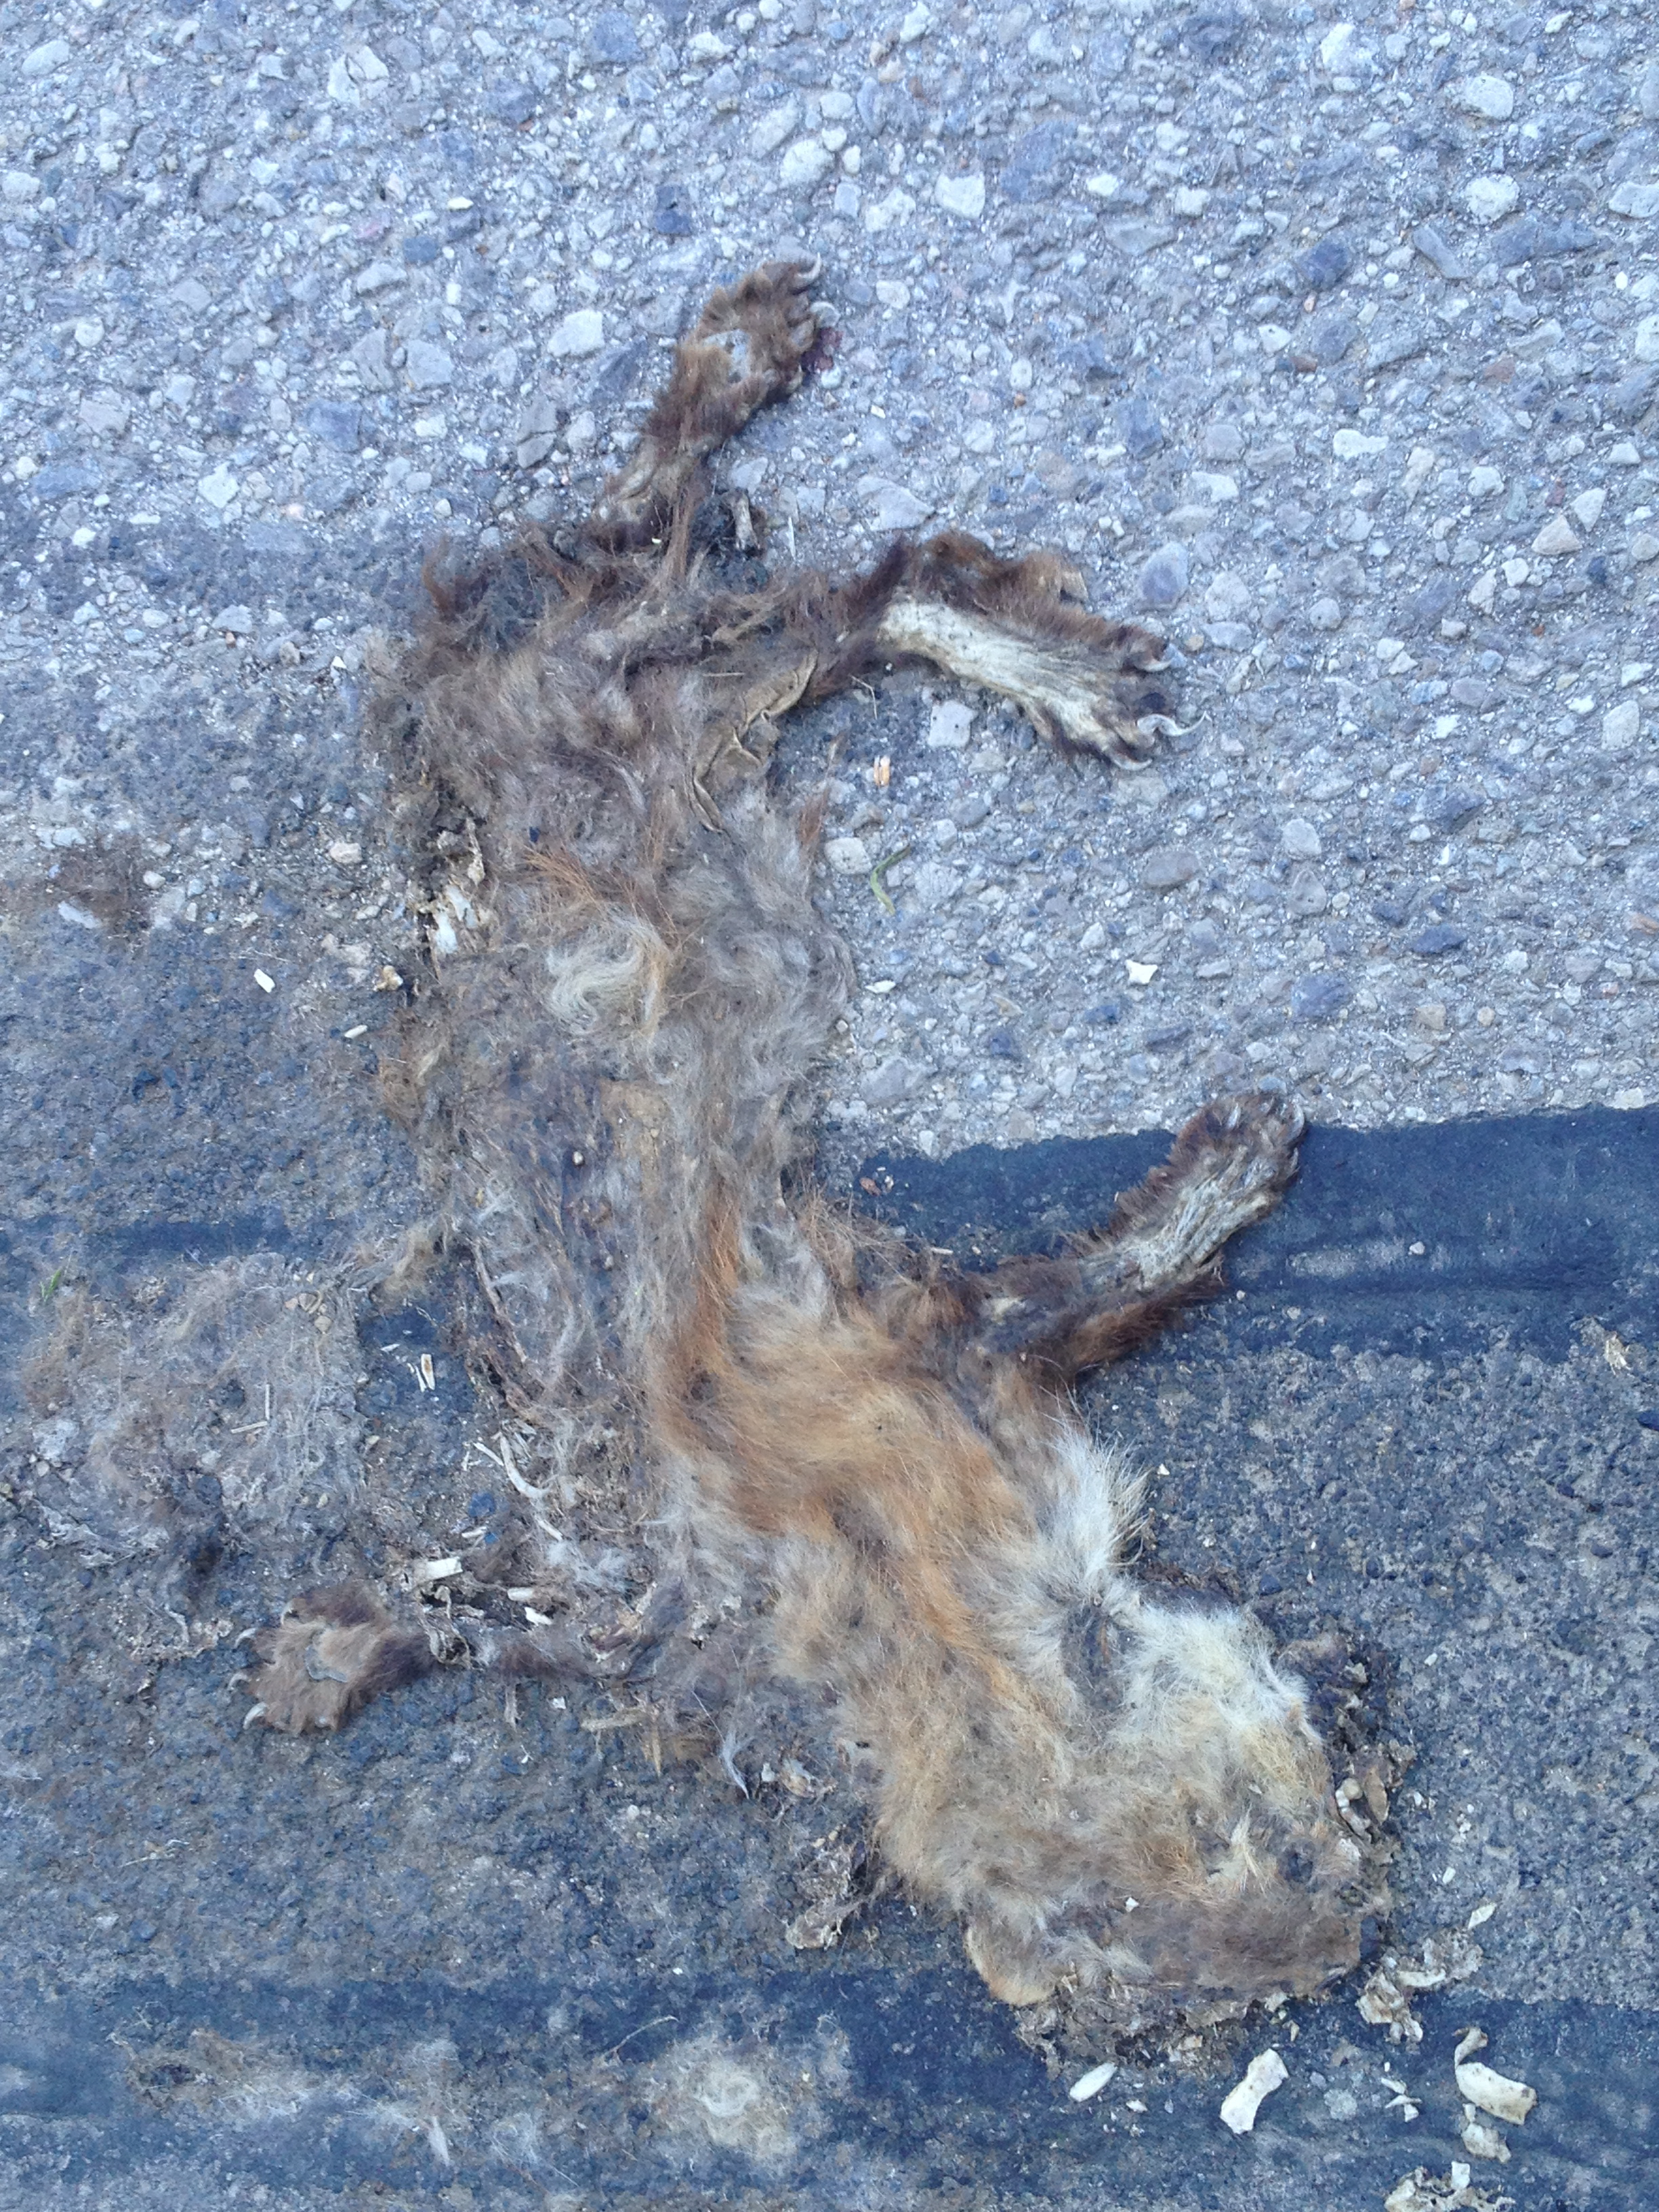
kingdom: Animalia
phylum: Chordata
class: Mammalia
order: Carnivora
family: Mustelidae
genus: Mustela
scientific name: Mustela nivalis
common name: Least weasel
